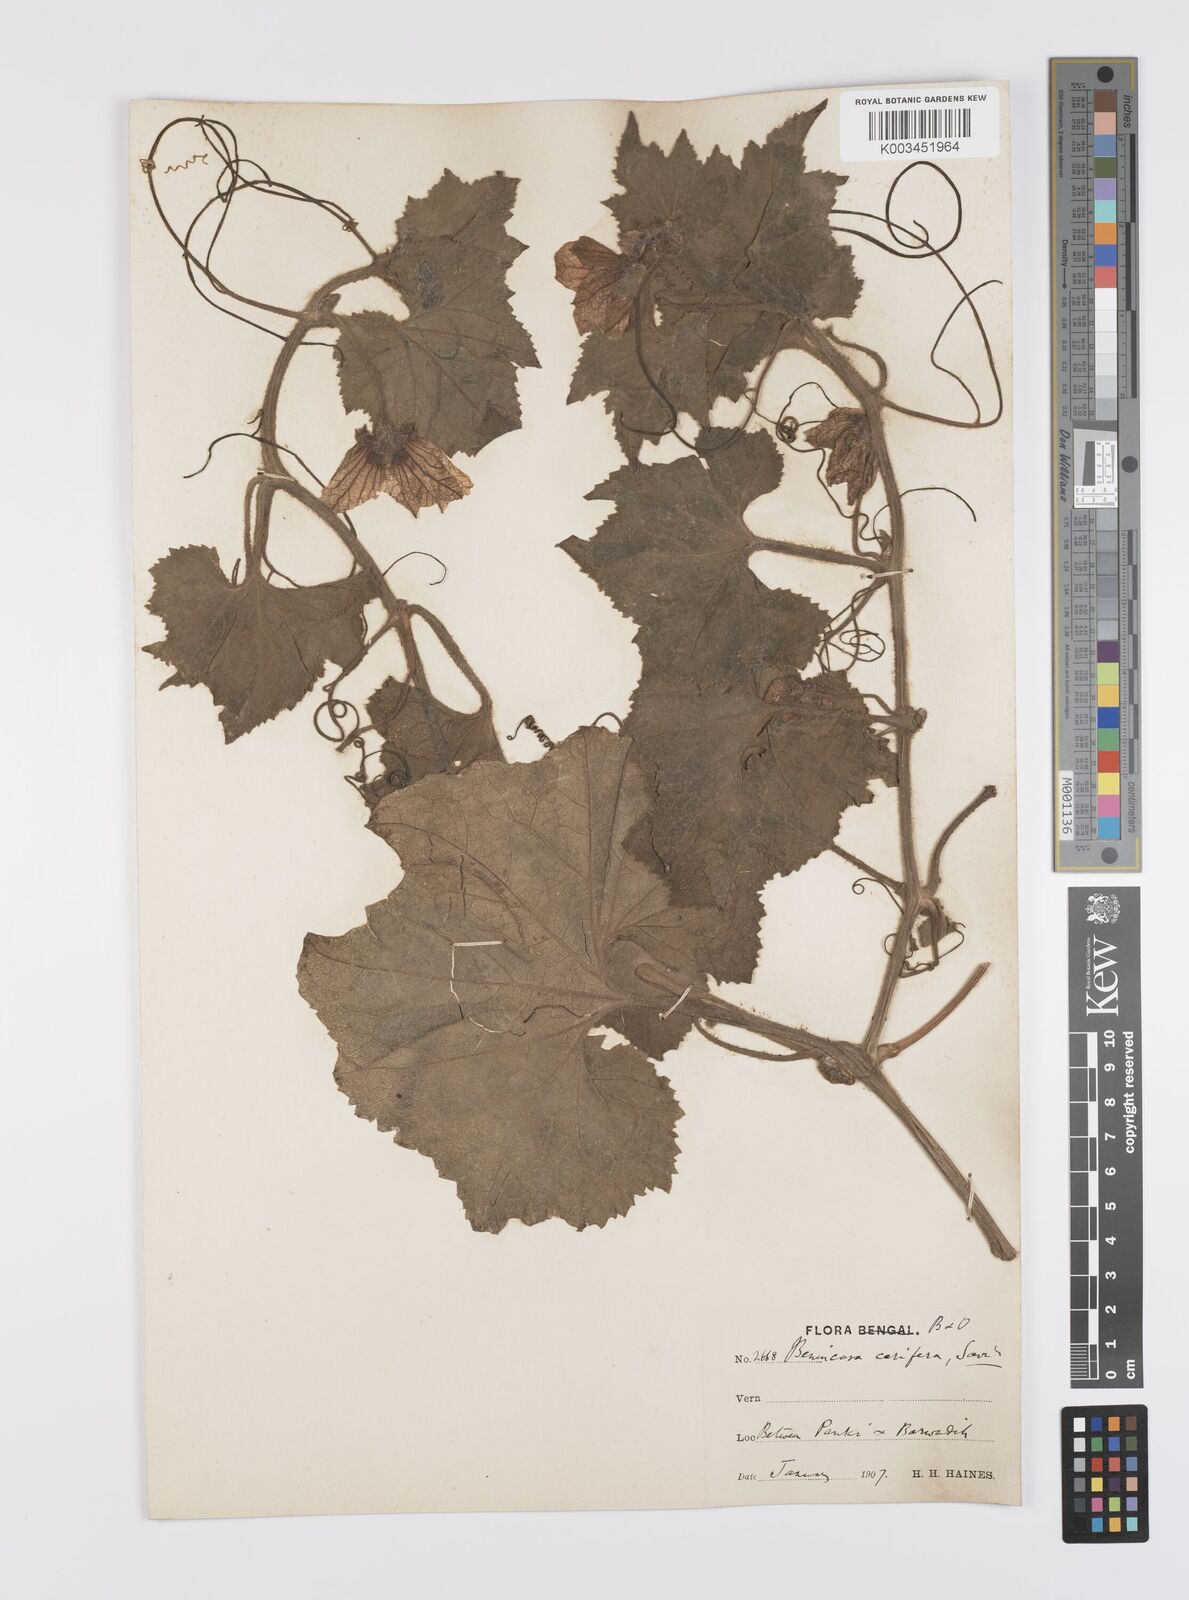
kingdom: Plantae
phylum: Tracheophyta
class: Magnoliopsida
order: Cucurbitales
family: Cucurbitaceae
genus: Benincasa
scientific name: Benincasa hispida
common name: Chinese-watermelon
